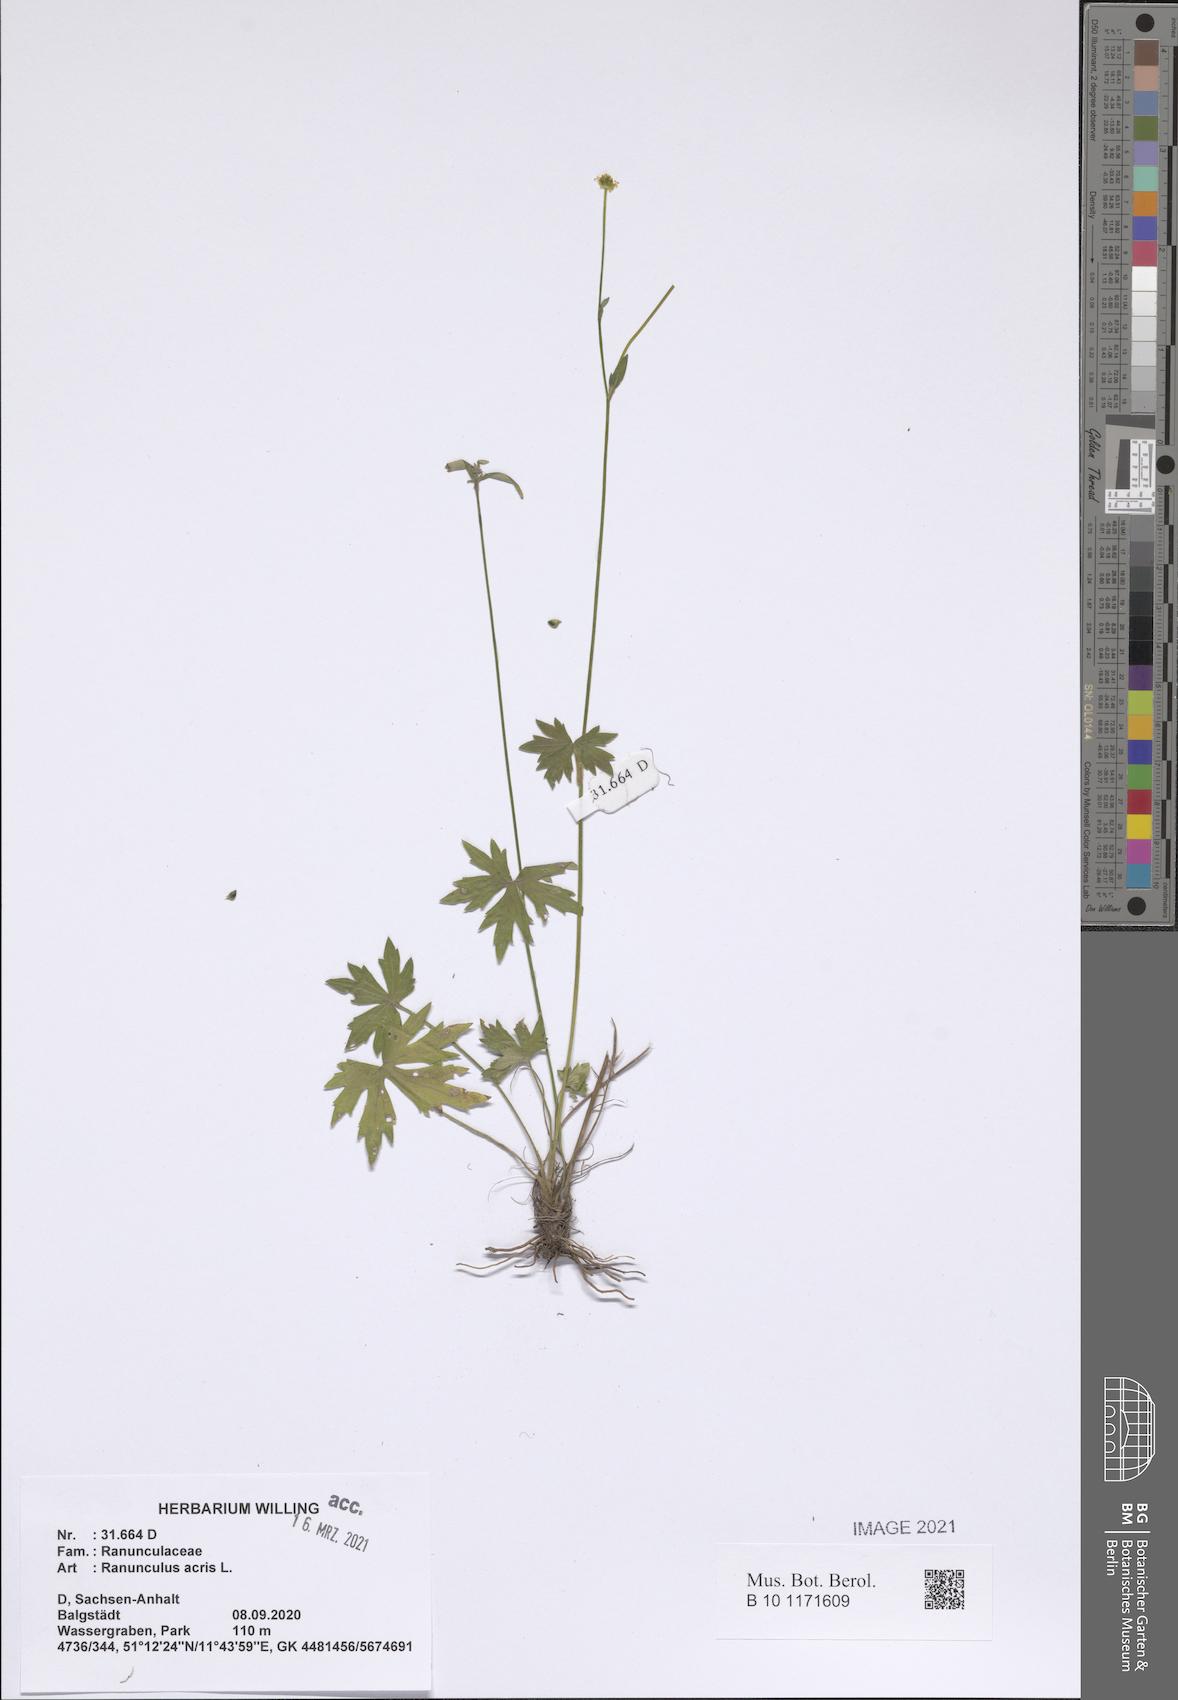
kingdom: Plantae
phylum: Tracheophyta
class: Magnoliopsida
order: Ranunculales
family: Ranunculaceae
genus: Ranunculus
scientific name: Ranunculus acris
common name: Meadow buttercup
